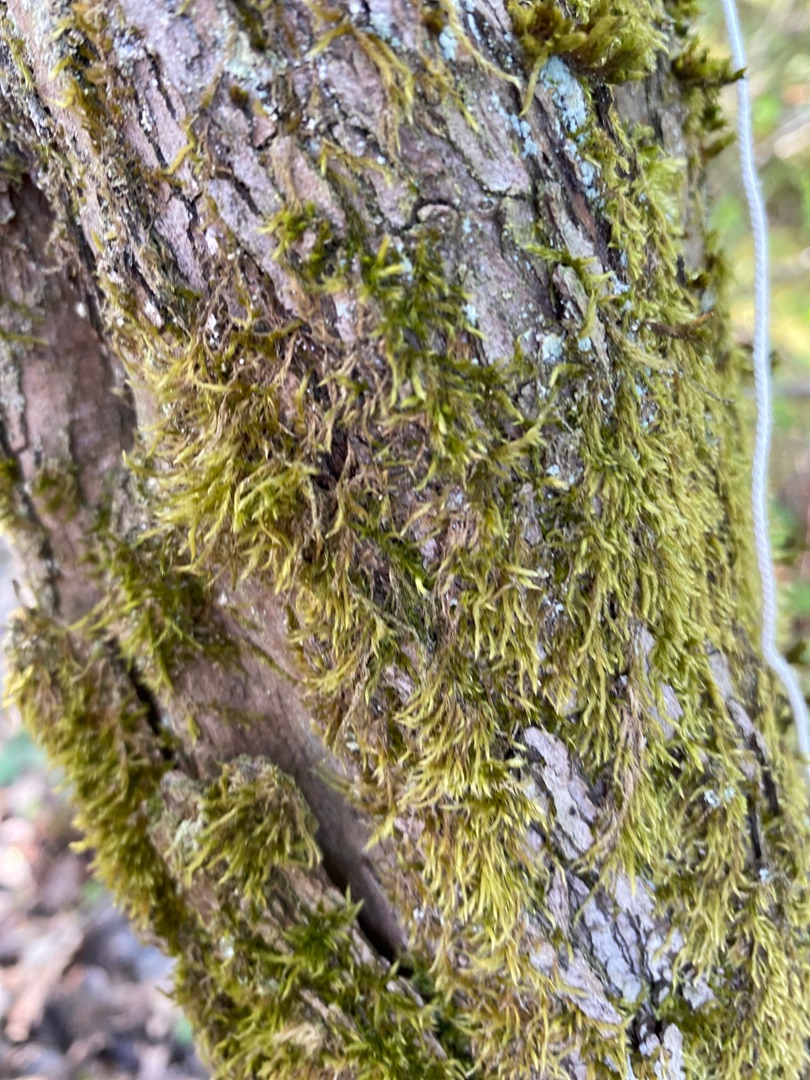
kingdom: Plantae
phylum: Bryophyta
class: Bryopsida
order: Hypnales
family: Hypnaceae
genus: Hypnum
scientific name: Hypnum cupressiforme
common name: Almindelig cypresmos
